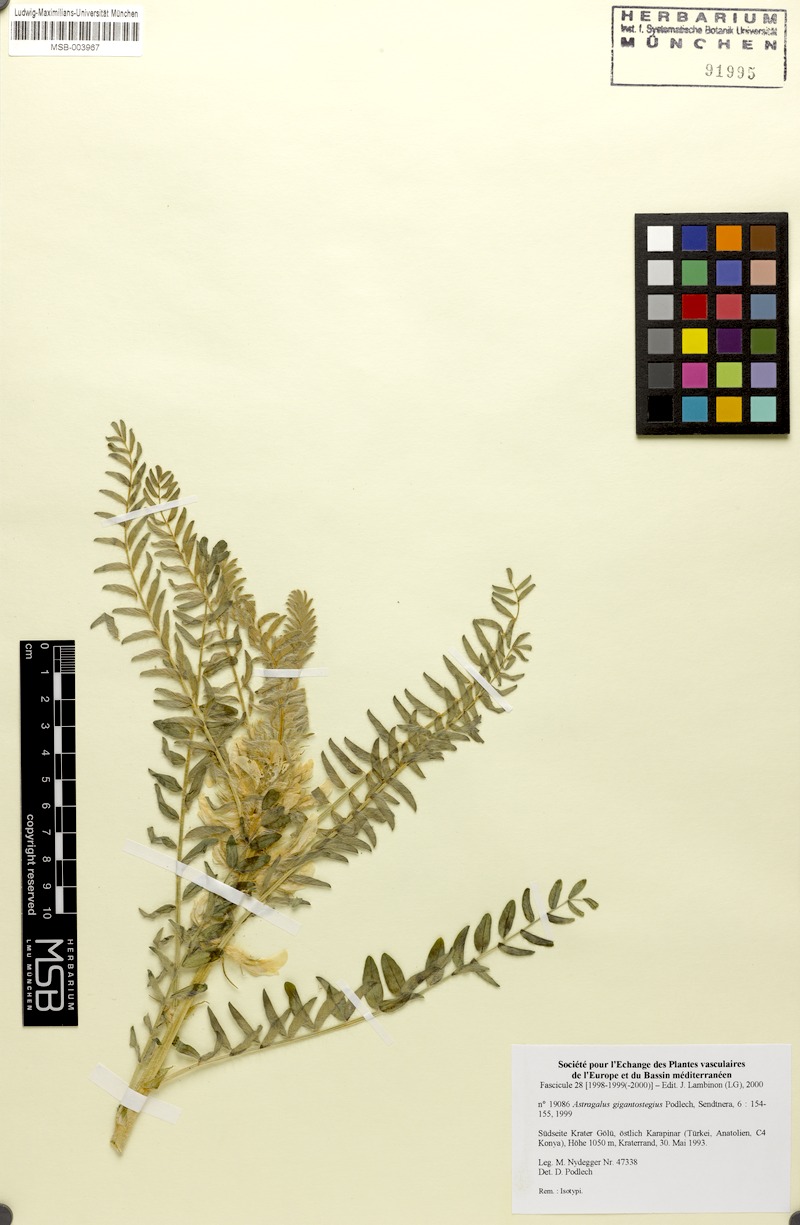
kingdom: Plantae
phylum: Tracheophyta
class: Magnoliopsida
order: Fabales
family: Fabaceae
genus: Astragalus
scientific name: Astragalus gigantostegius
